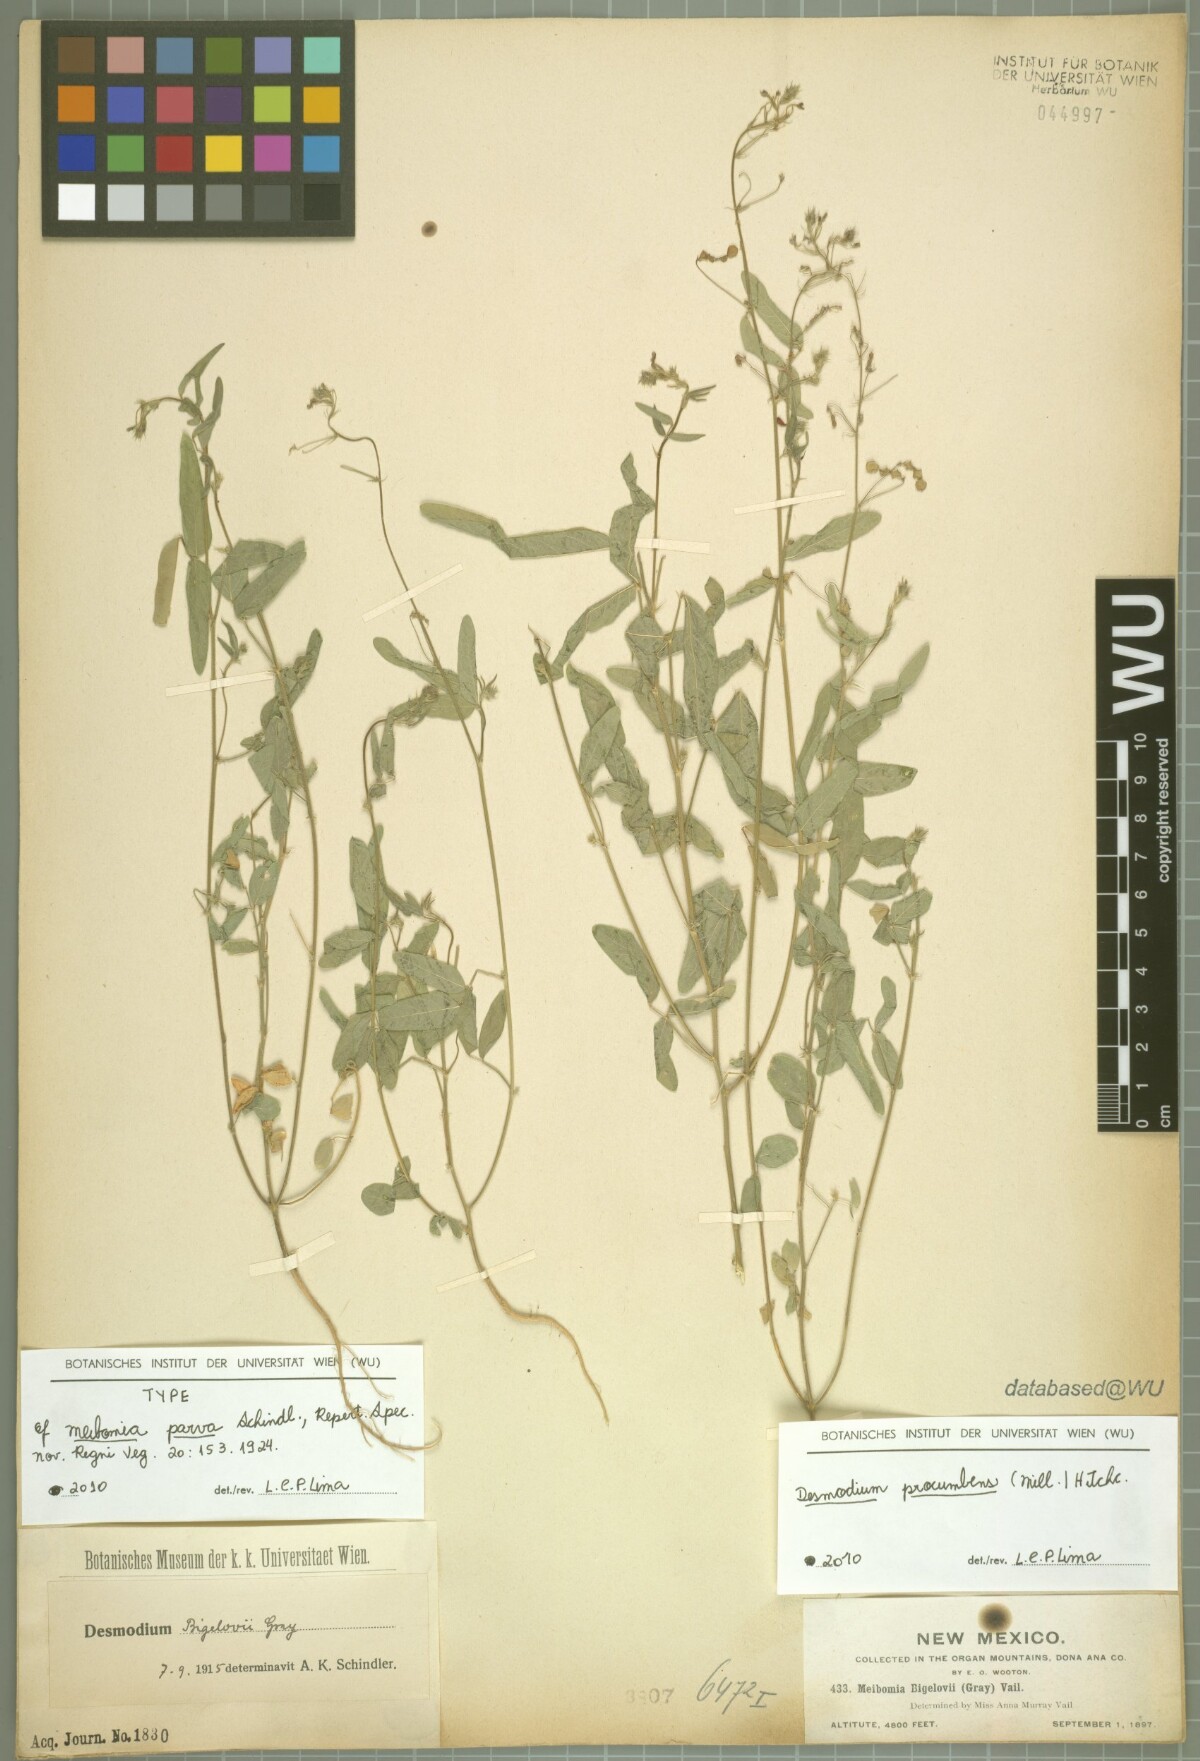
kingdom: Plantae
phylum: Tracheophyta
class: Magnoliopsida
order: Fabales
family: Fabaceae
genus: Desmodium
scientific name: Desmodium procumbens
